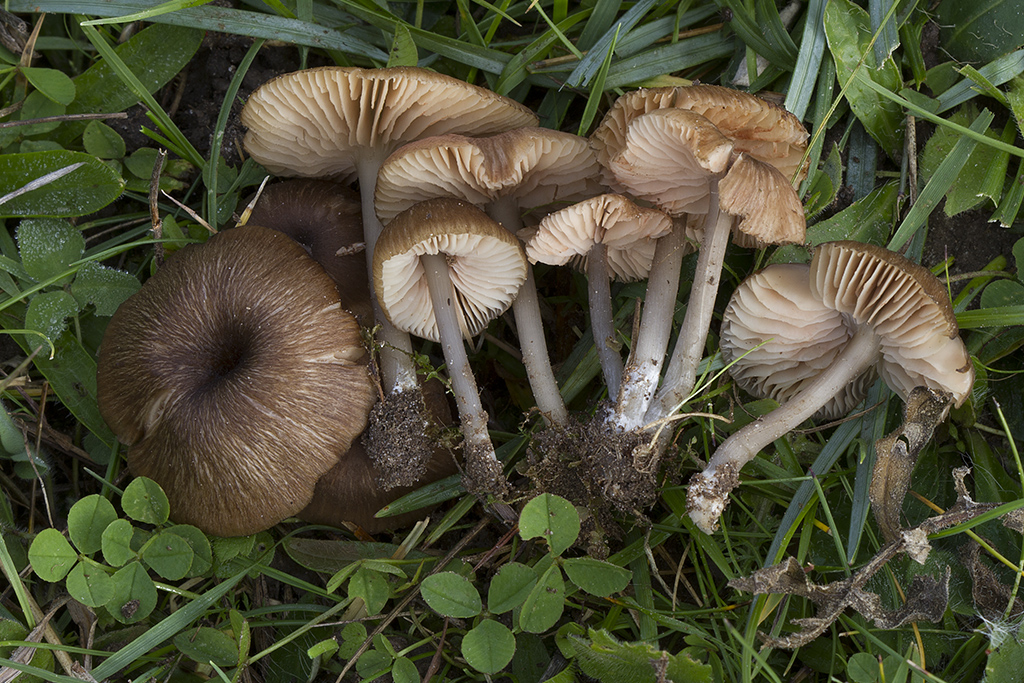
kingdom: Fungi
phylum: Basidiomycota
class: Agaricomycetes
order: Agaricales
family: Entolomataceae
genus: Entoloma
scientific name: Entoloma isborscanum
